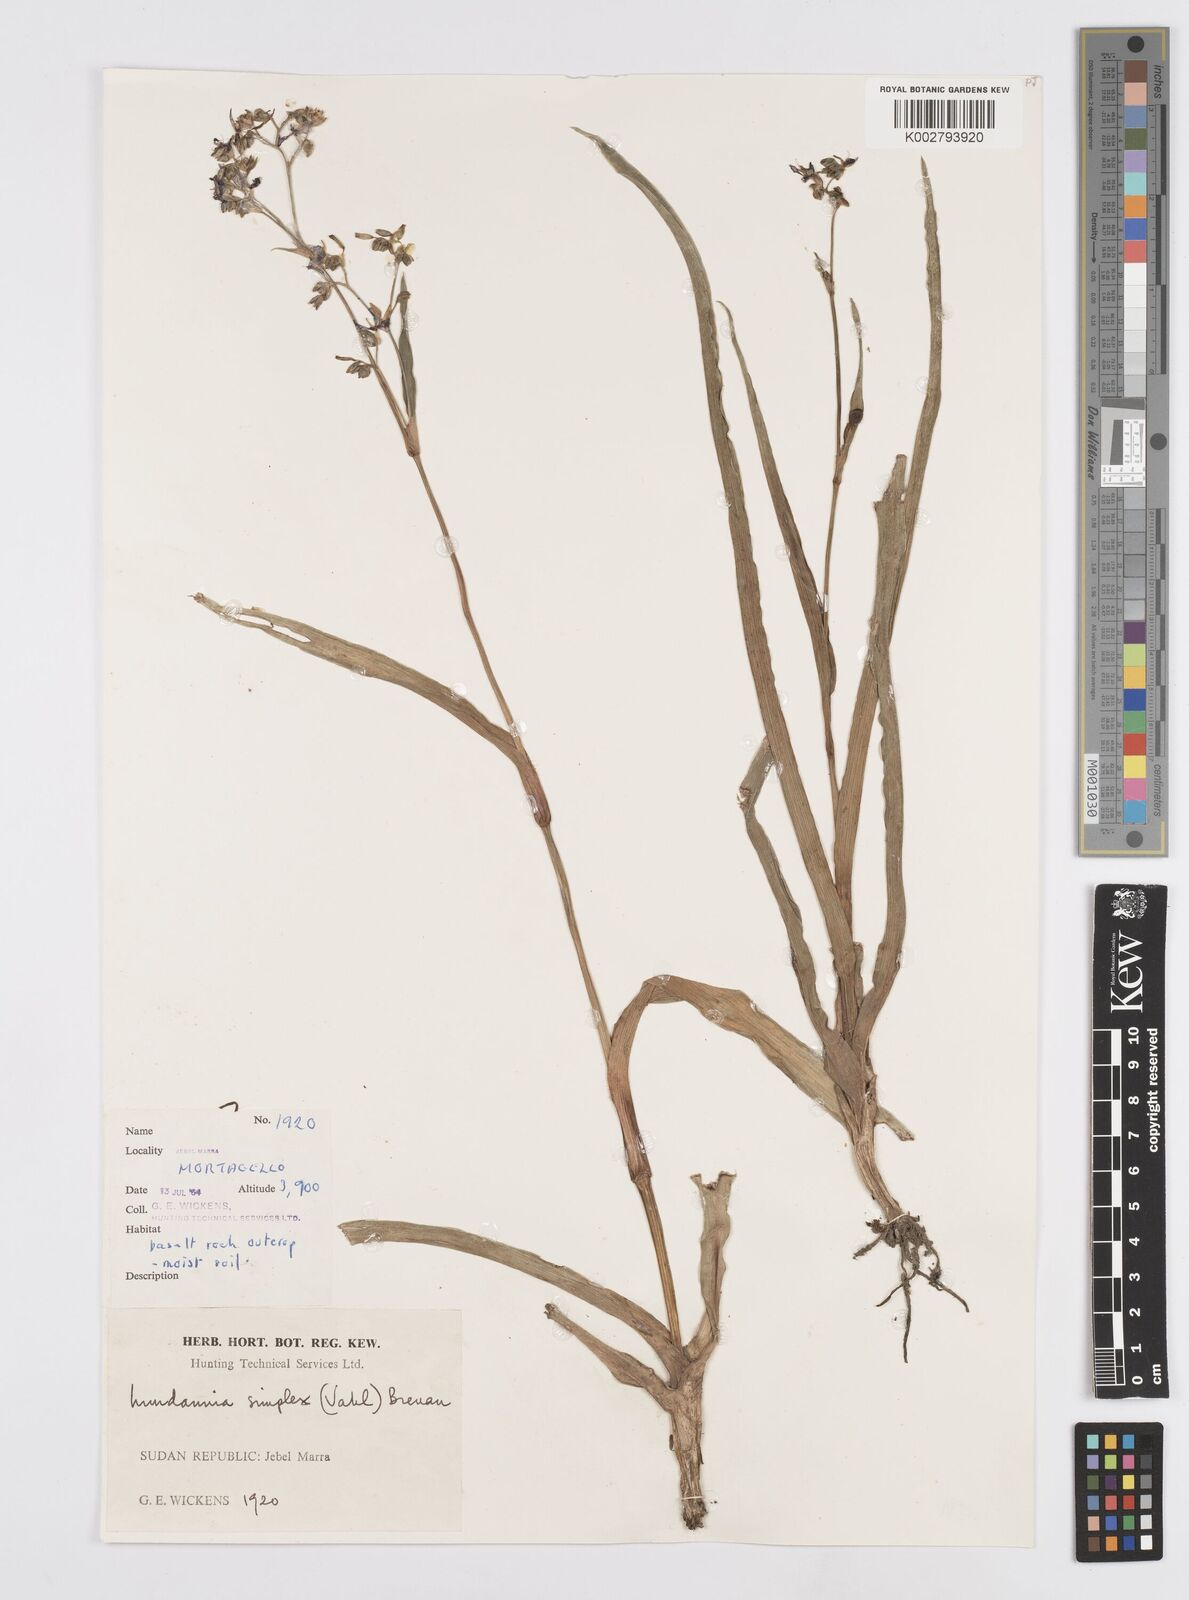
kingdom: Plantae
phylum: Tracheophyta
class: Liliopsida
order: Commelinales
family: Commelinaceae
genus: Murdannia
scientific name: Murdannia simplex
